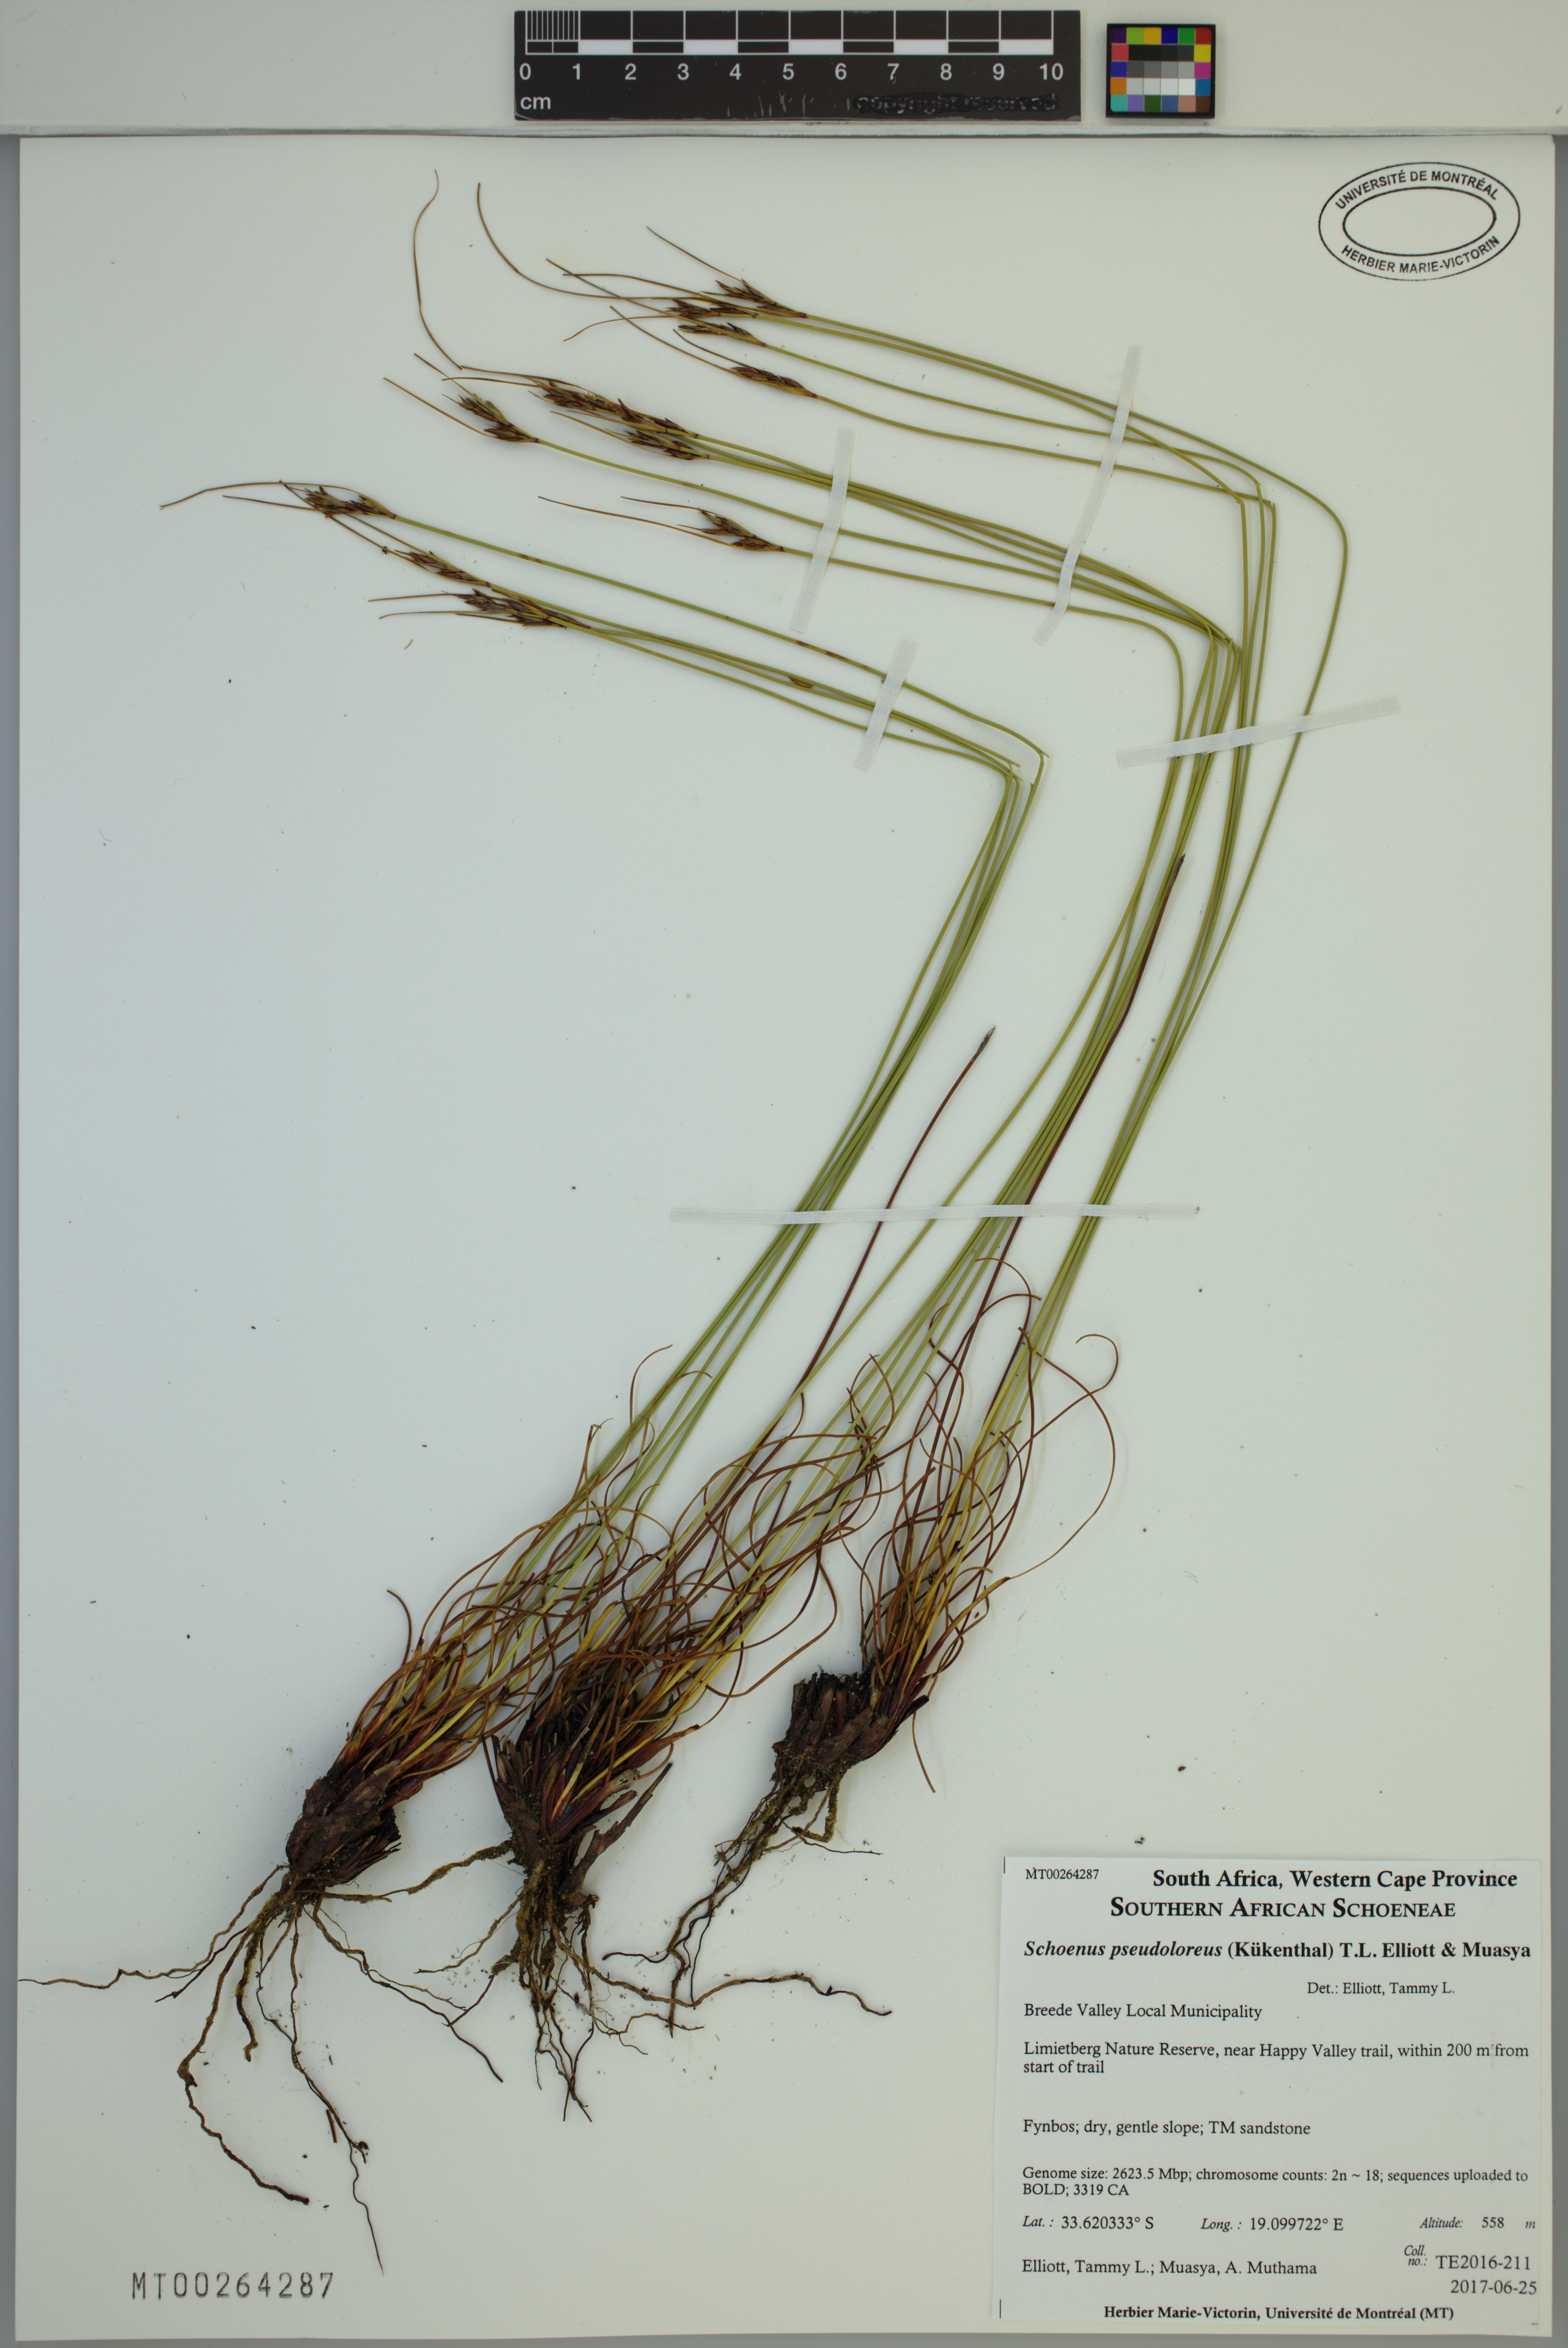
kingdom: Plantae
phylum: Tracheophyta
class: Liliopsida
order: Poales
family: Cyperaceae
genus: Schoenus
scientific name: Schoenus pseudoloreus
